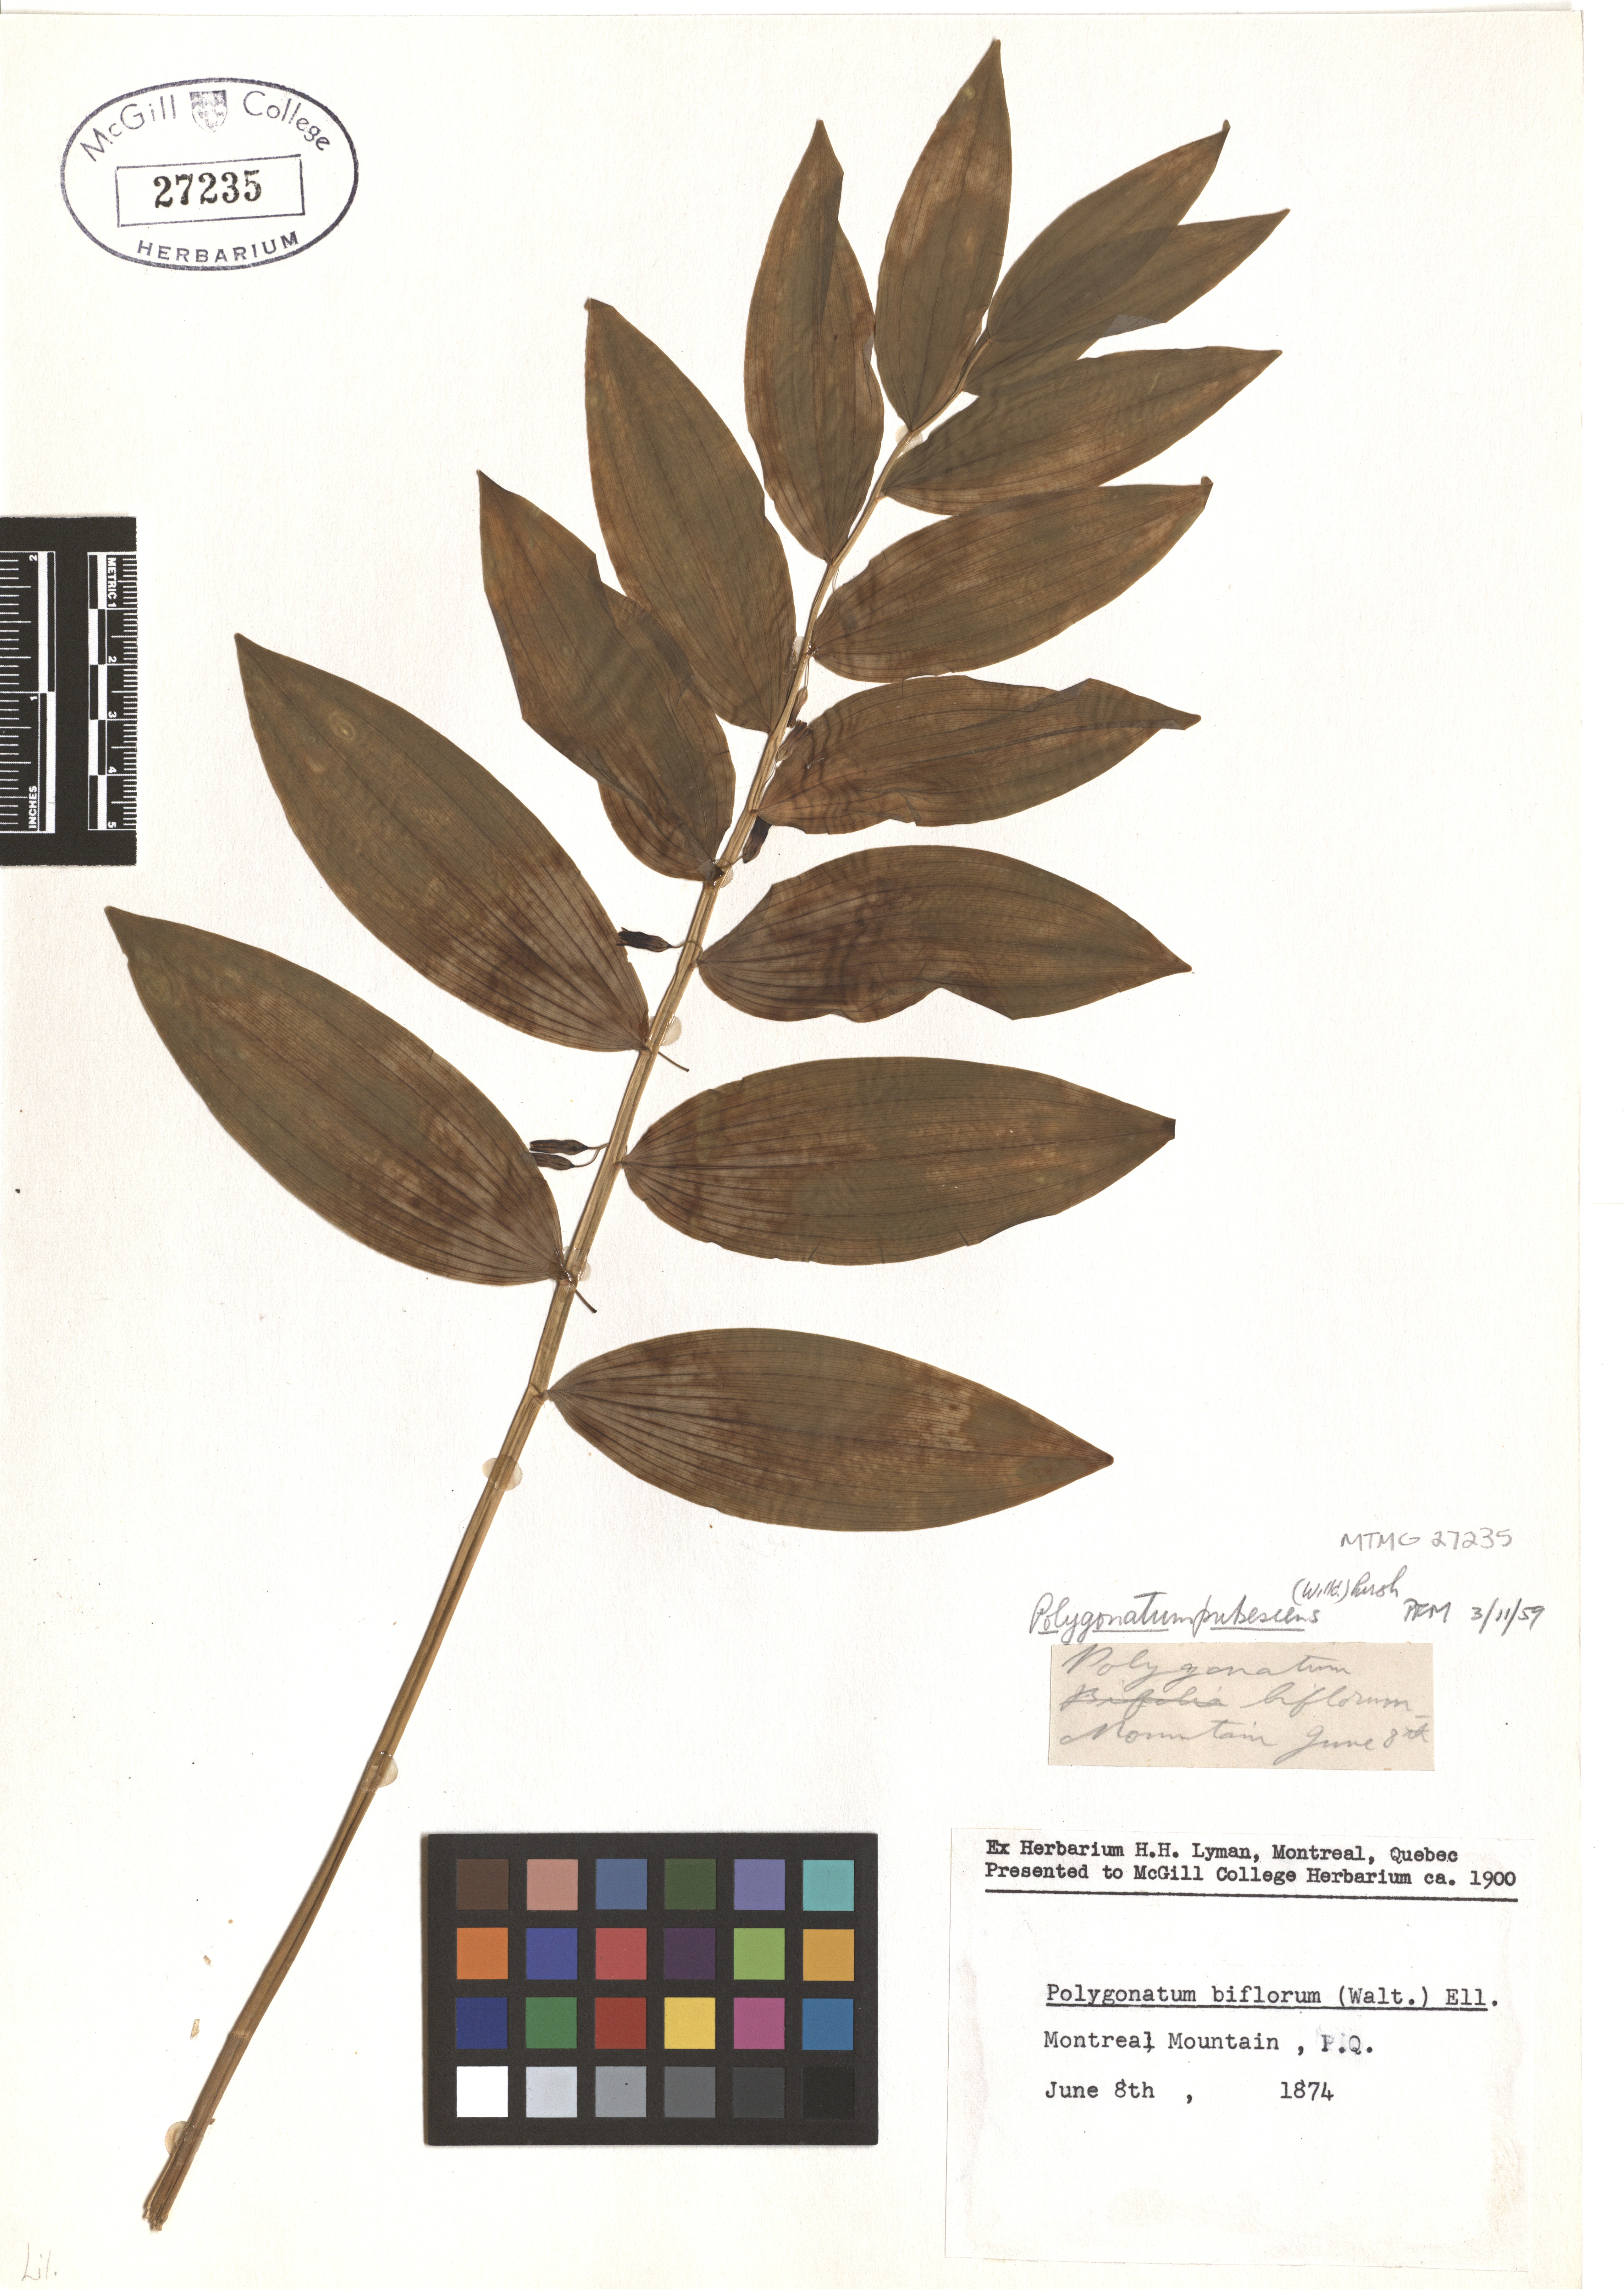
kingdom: Plantae
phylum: Tracheophyta
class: Liliopsida
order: Asparagales
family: Asparagaceae
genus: Polygonatum
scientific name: Polygonatum pubescens
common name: Downy solomon's seal
